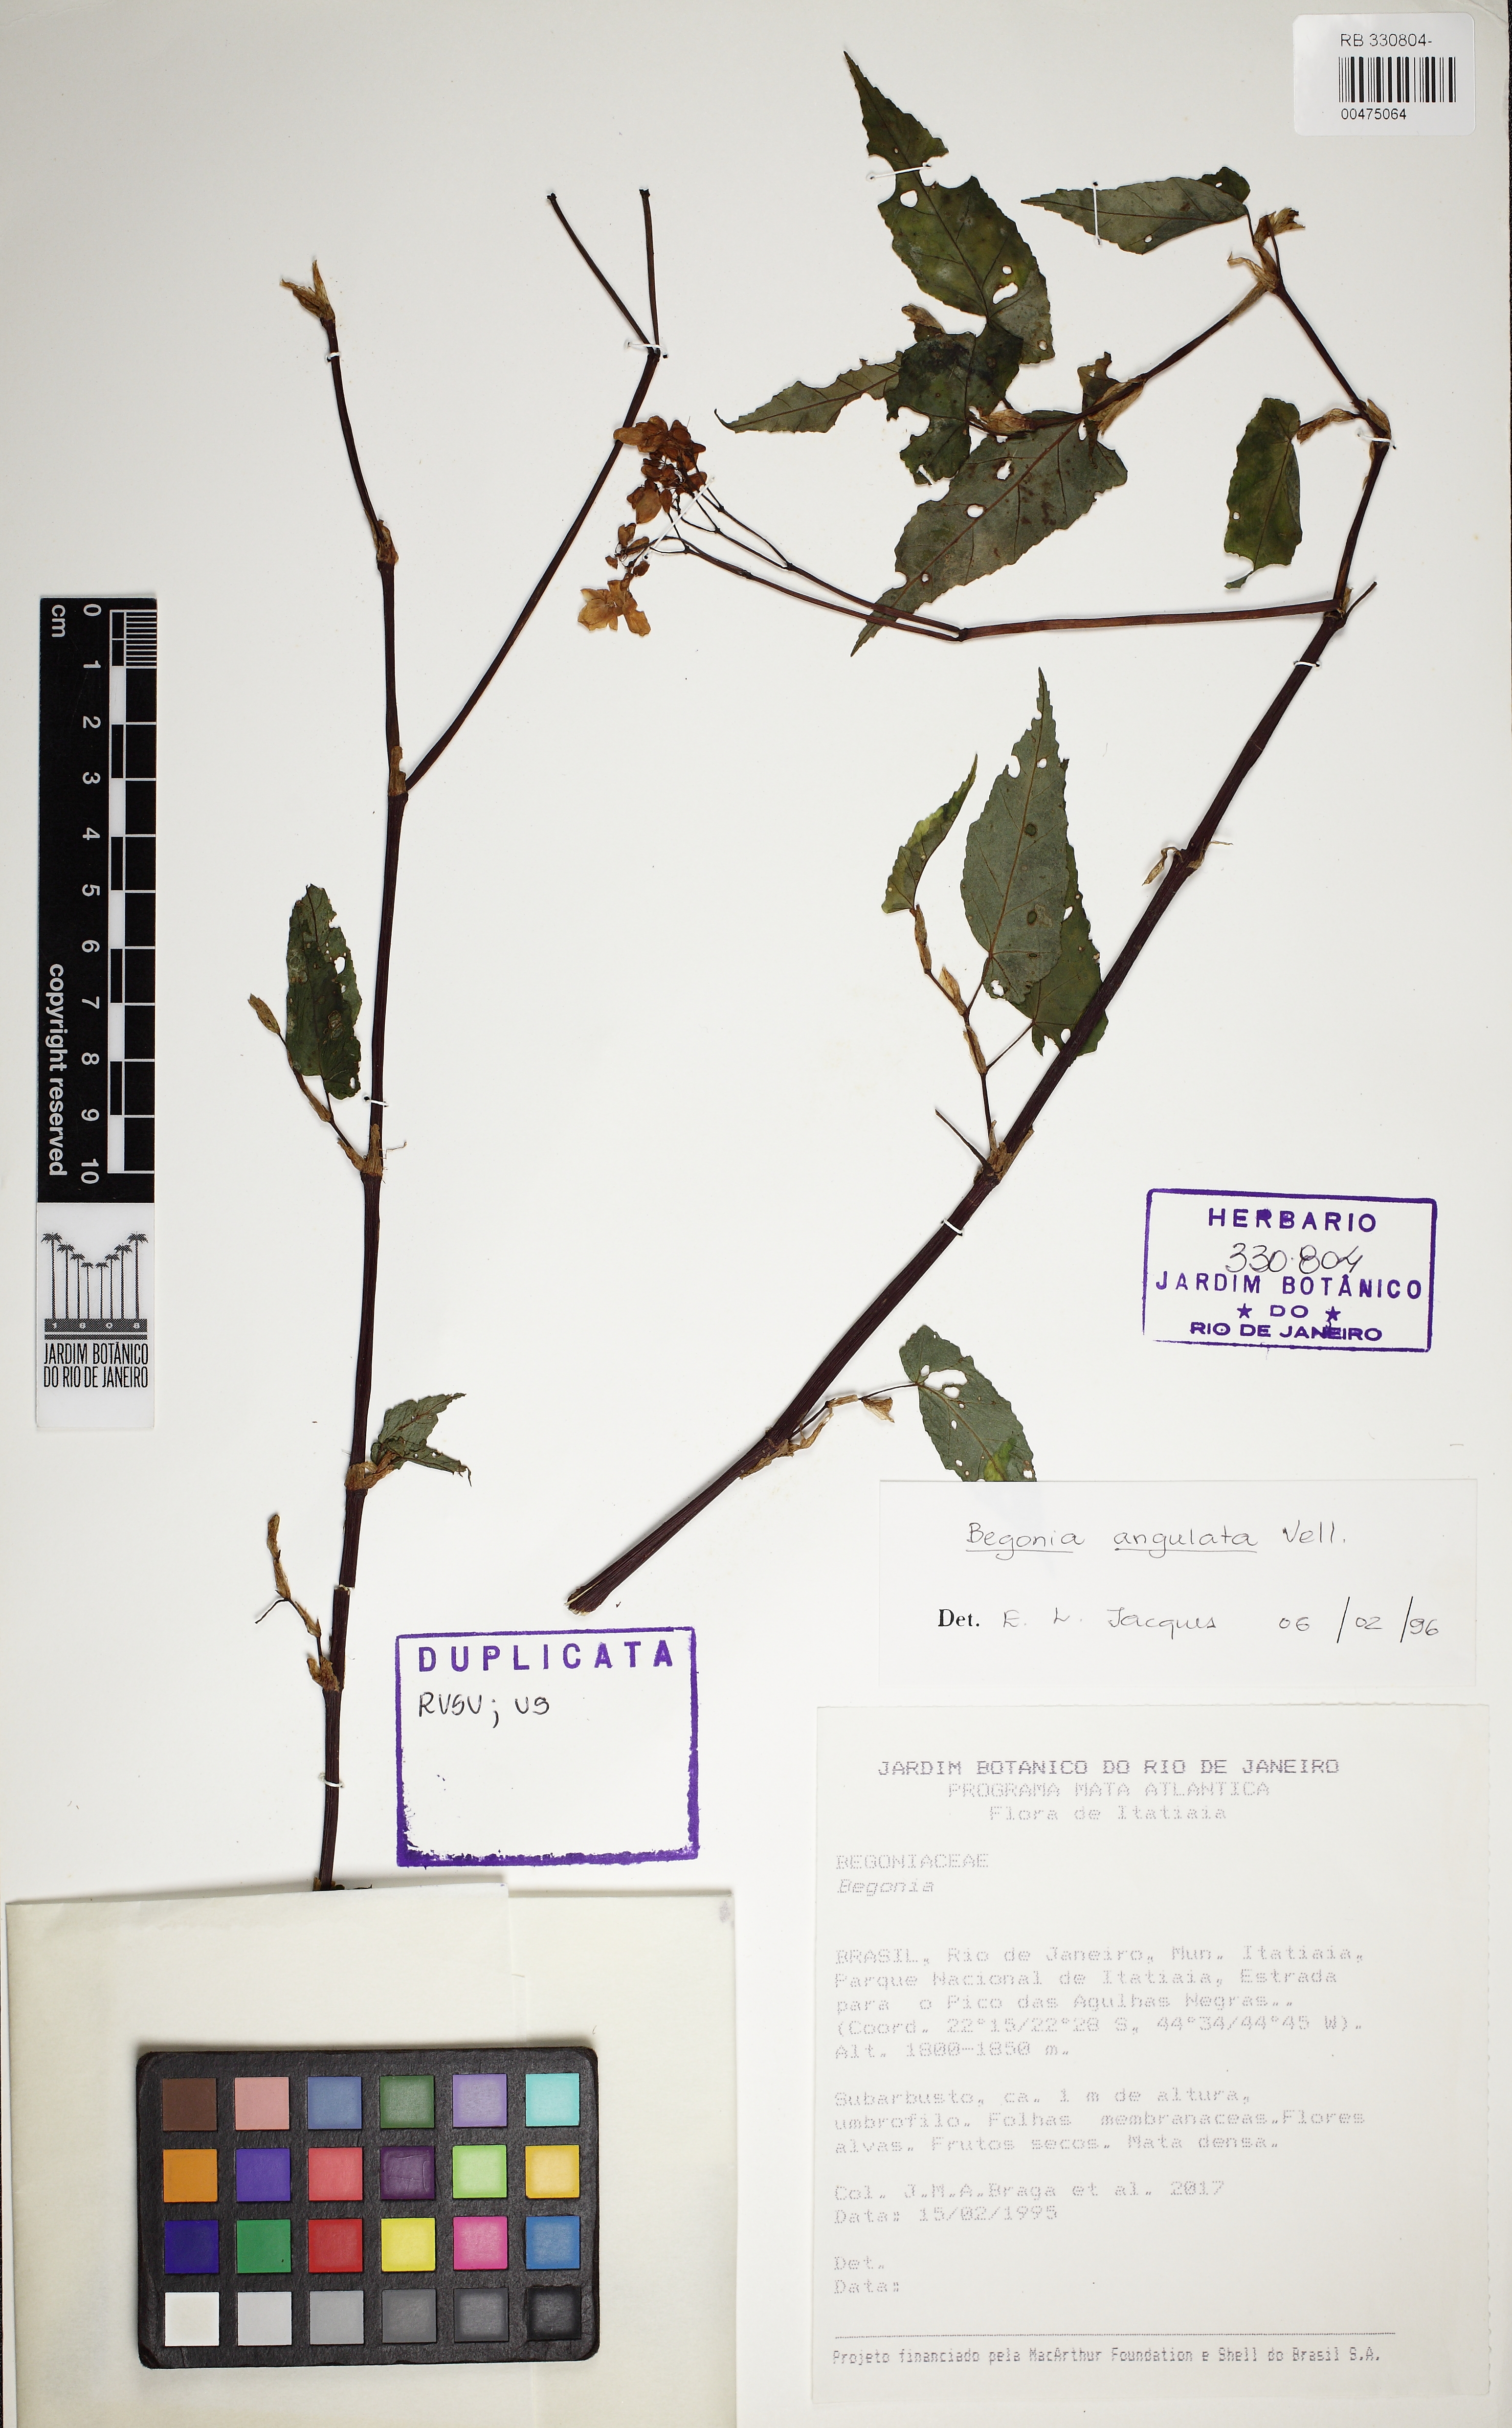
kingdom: Plantae
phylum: Tracheophyta
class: Magnoliopsida
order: Cucurbitales
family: Begoniaceae
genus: Begonia
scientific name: Begonia angulata
